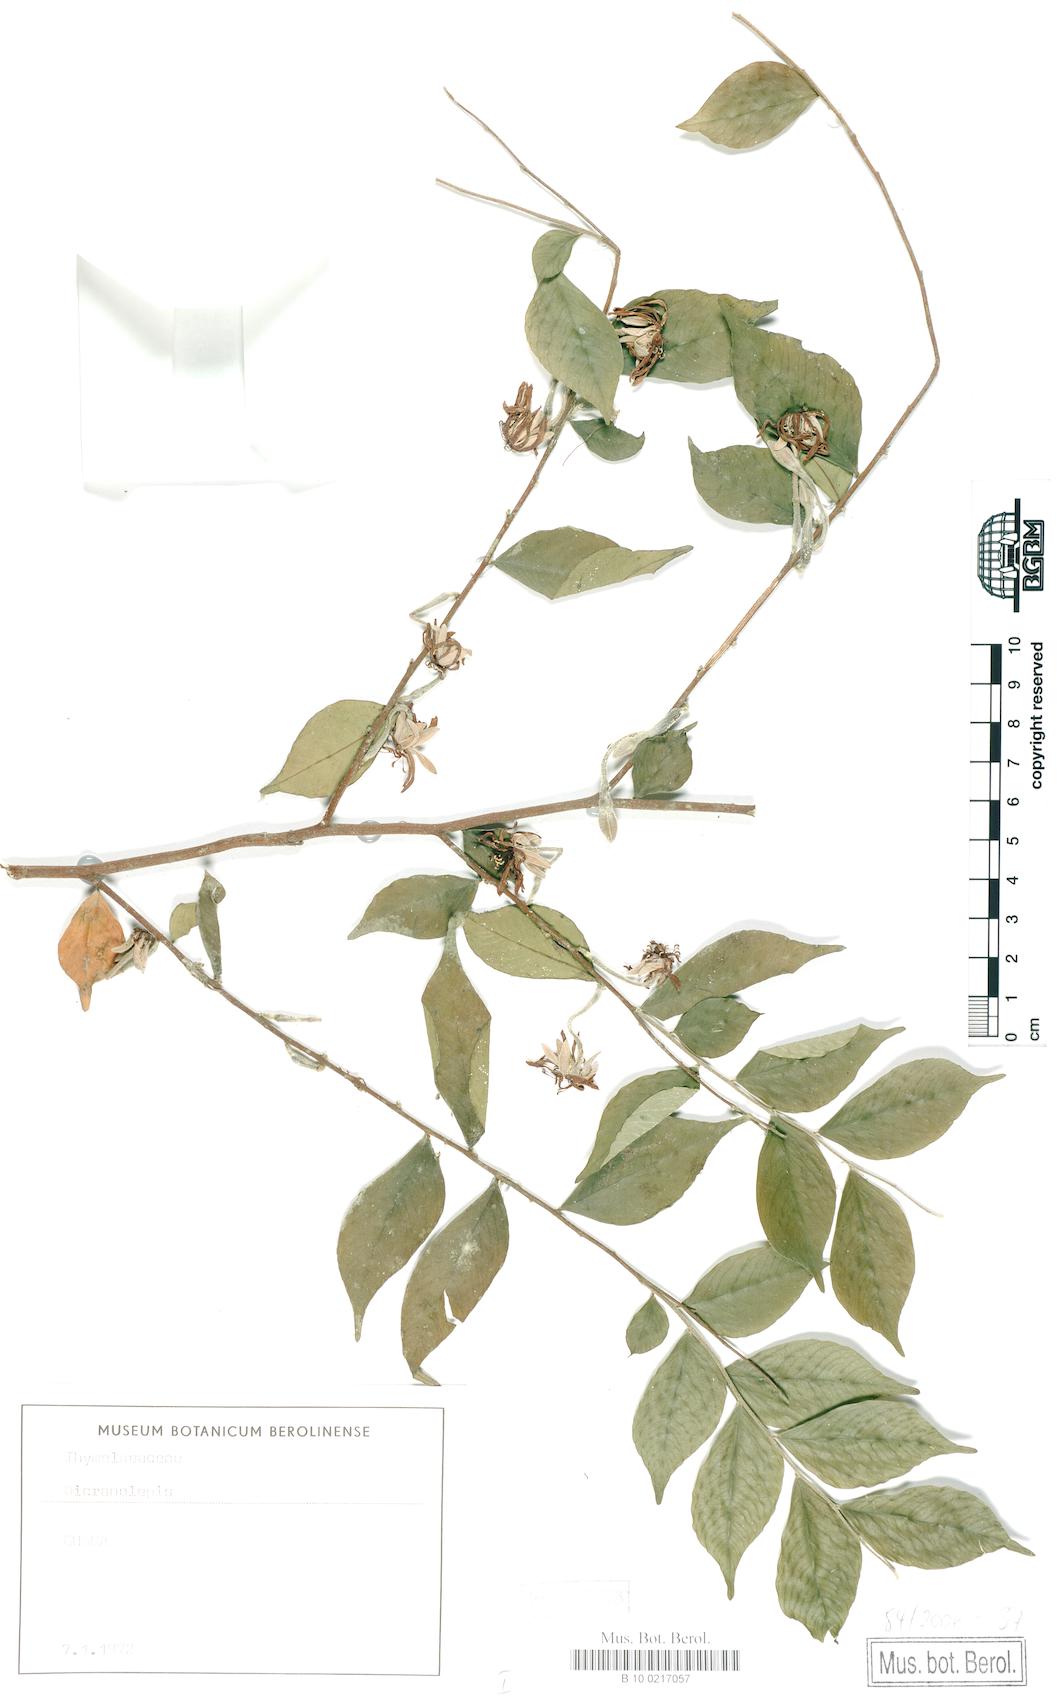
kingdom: Plantae
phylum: Tracheophyta
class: Magnoliopsida
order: Malvales
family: Thymelaeaceae
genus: Dicranolepis
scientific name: Dicranolepis grandiflora
